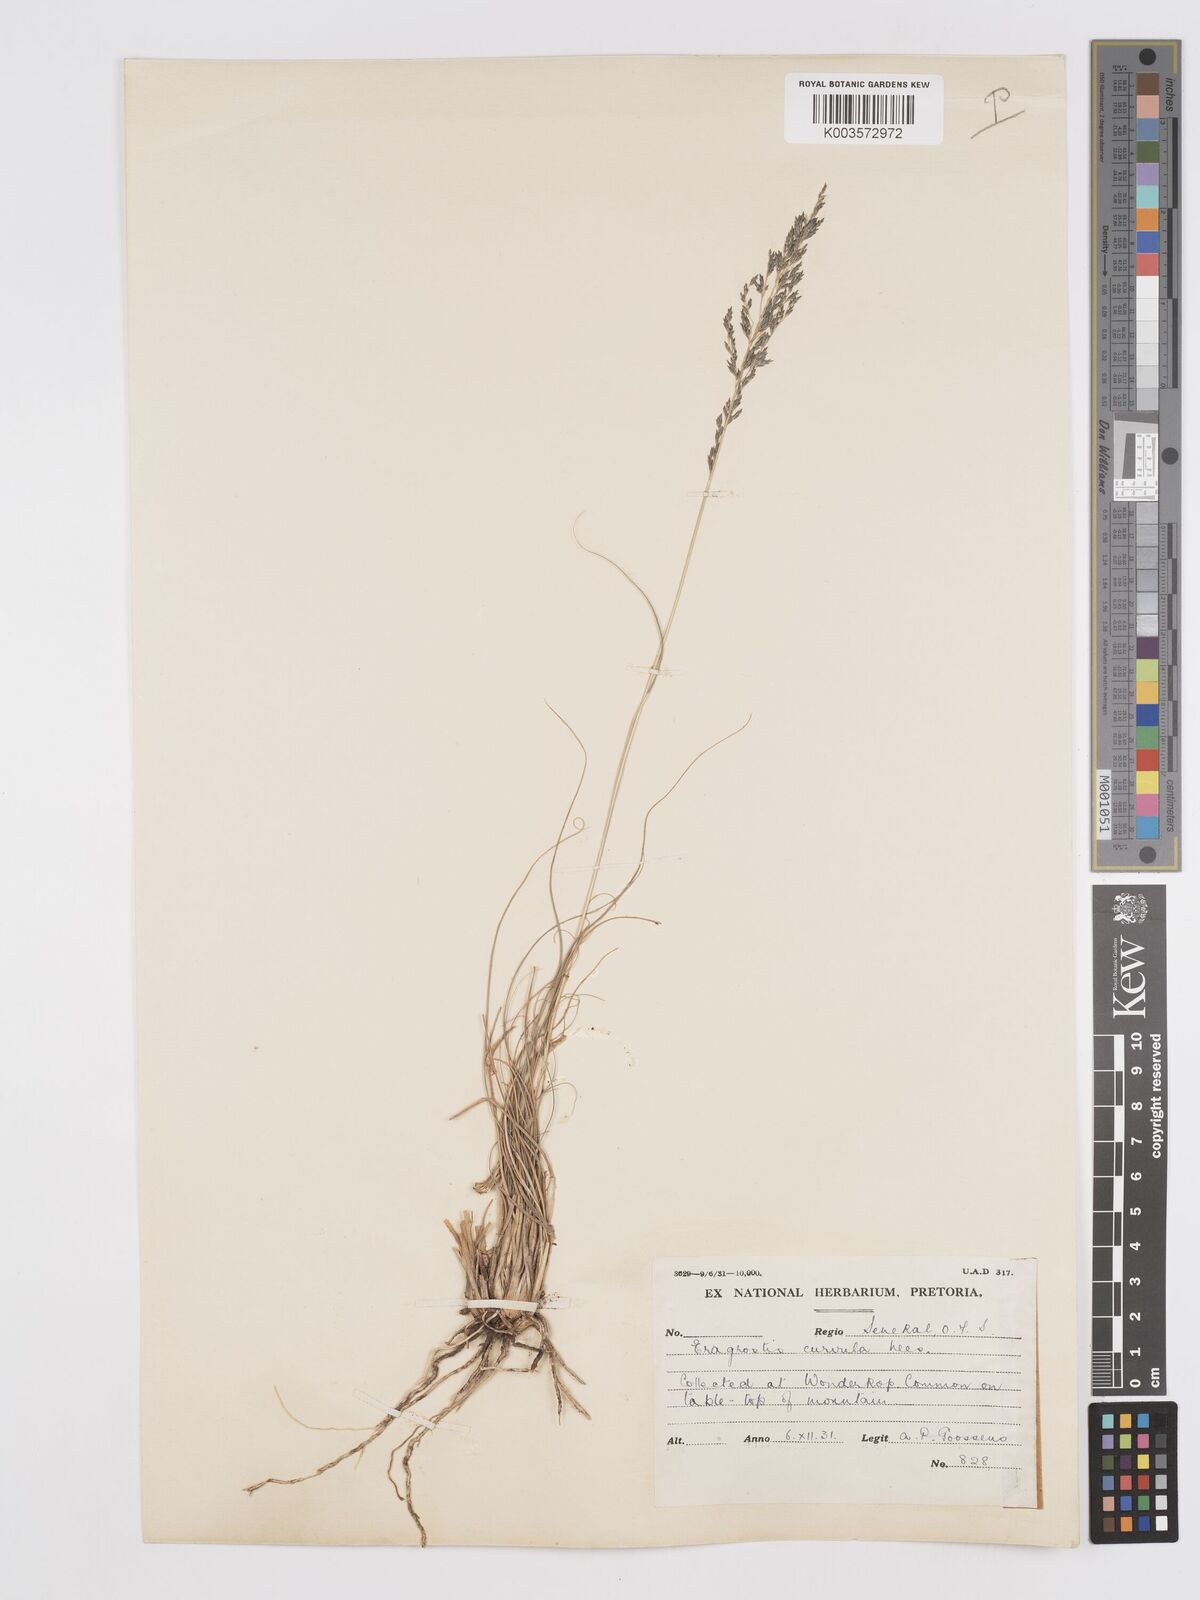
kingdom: Plantae
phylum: Tracheophyta
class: Liliopsida
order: Poales
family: Poaceae
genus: Eragrostis
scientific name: Eragrostis curvula
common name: African love-grass
